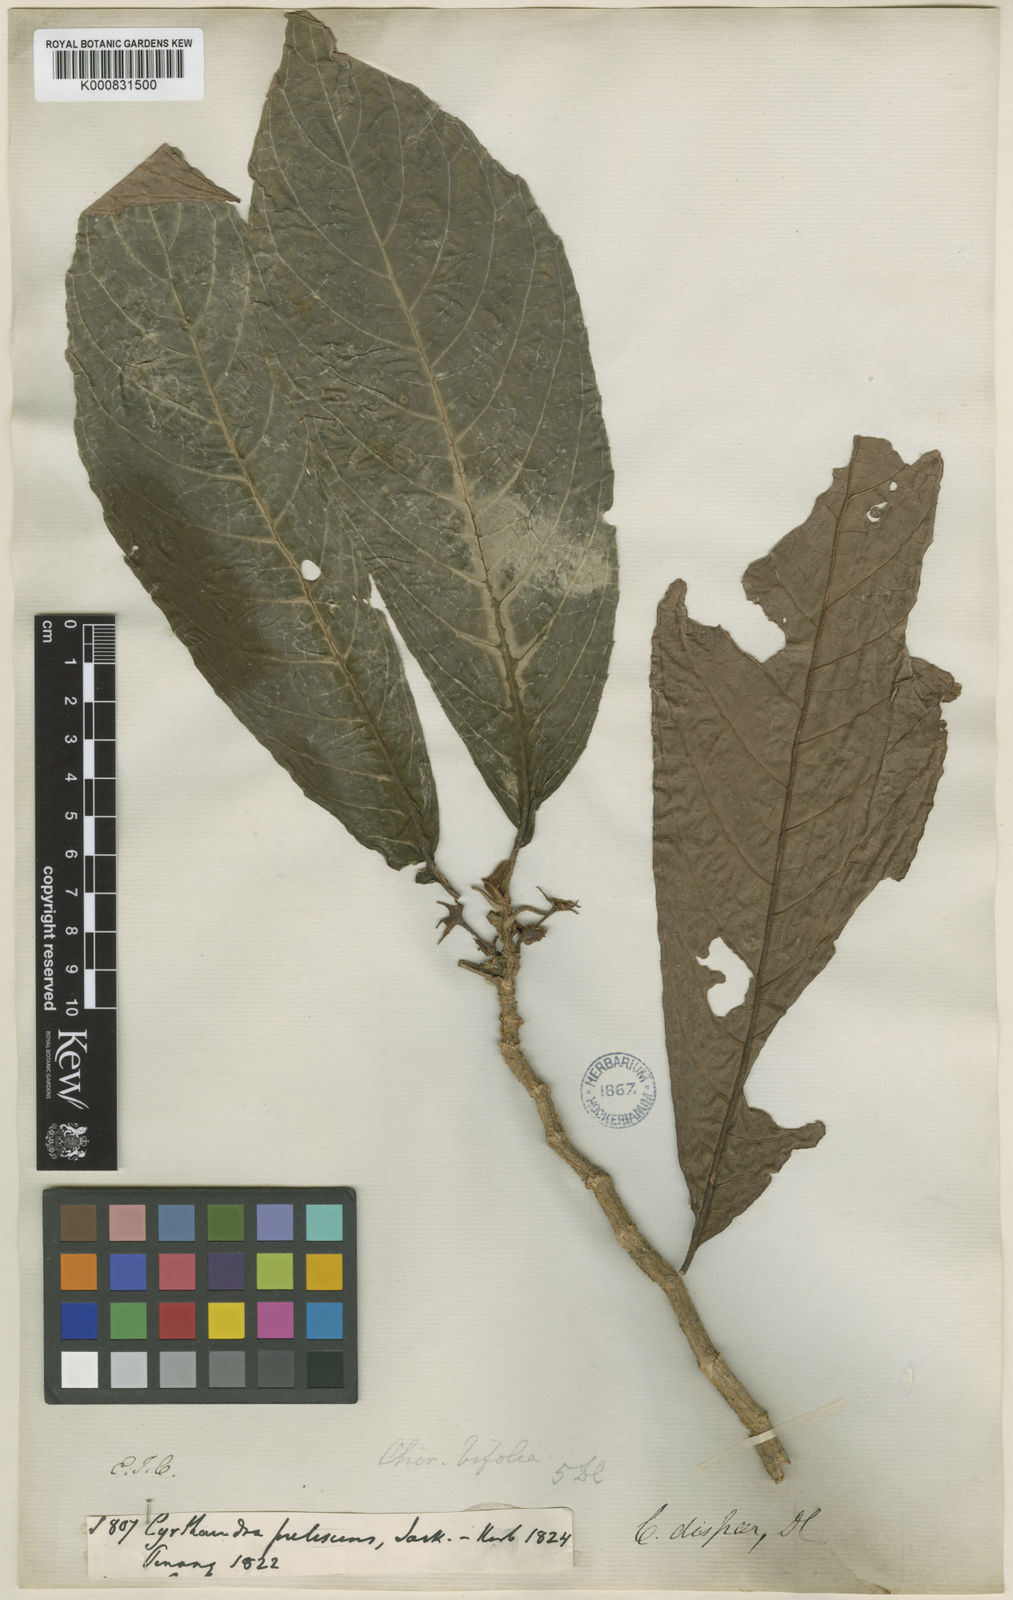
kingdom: Plantae
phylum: Tracheophyta
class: Magnoliopsida
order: Lamiales
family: Gesneriaceae
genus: Cyrtandra
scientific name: Cyrtandra dispar
